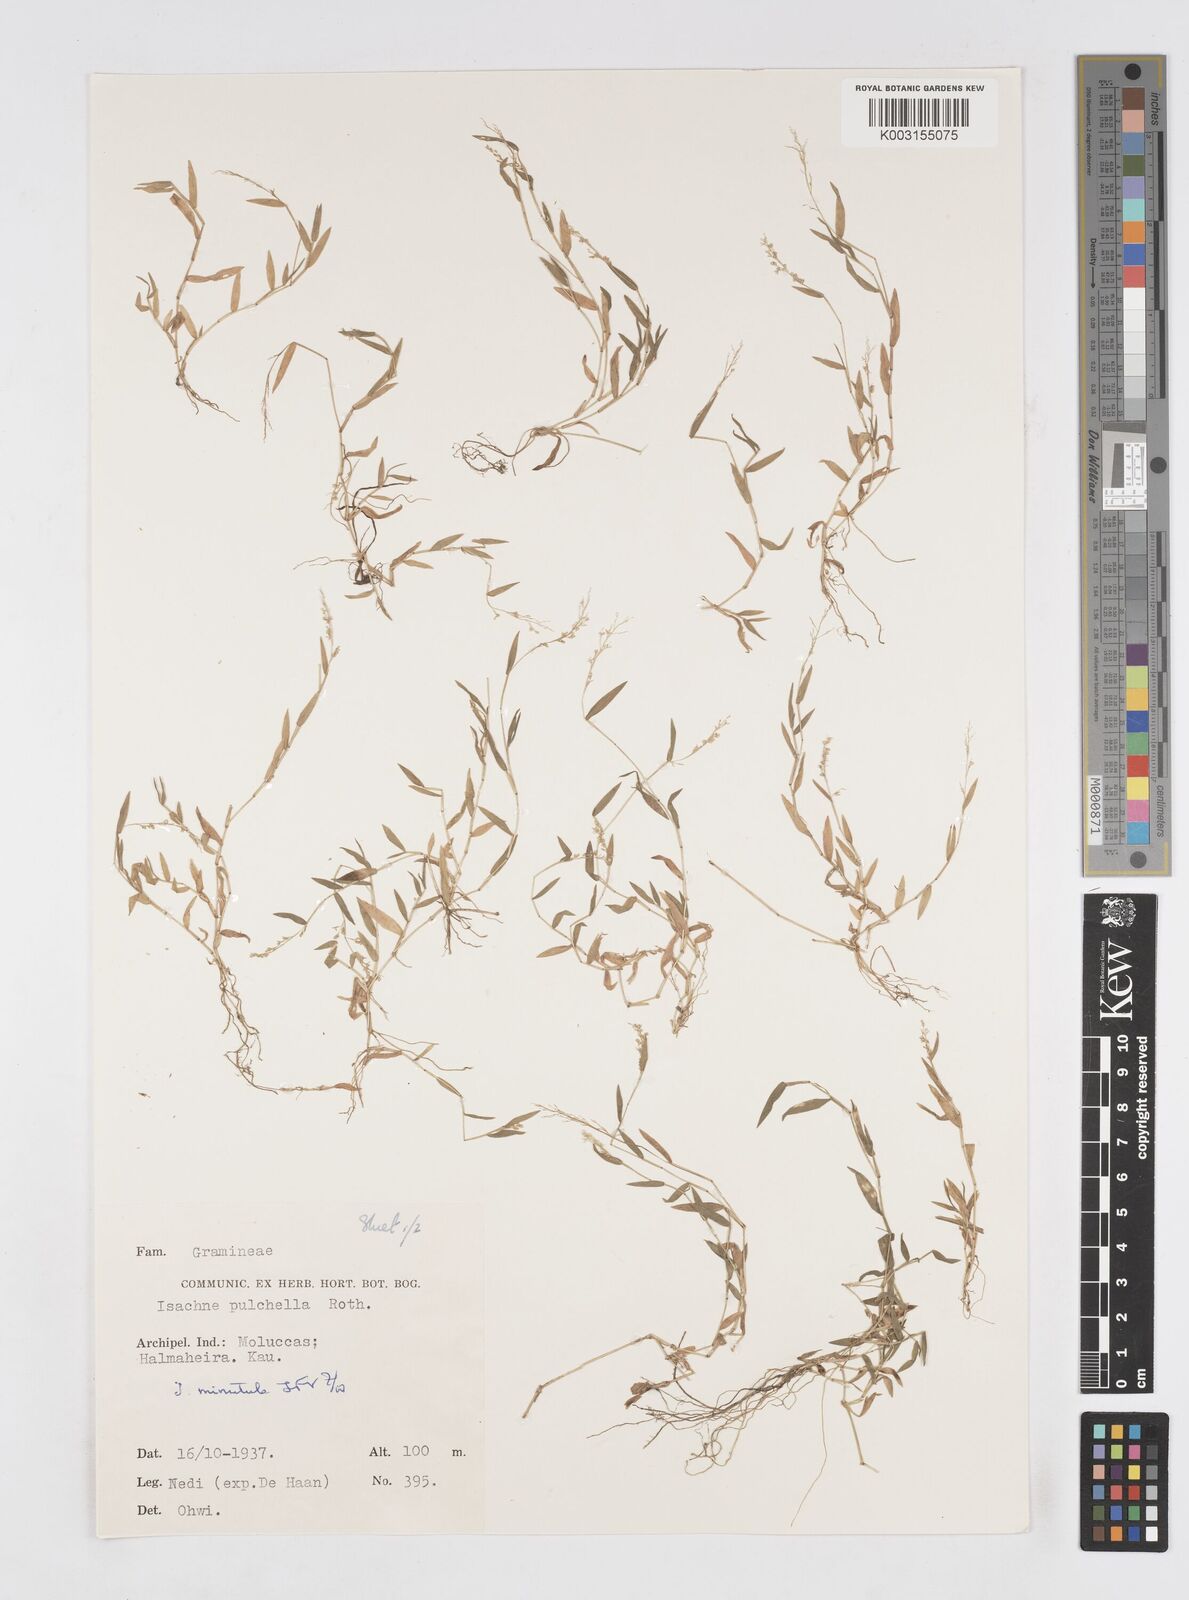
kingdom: Plantae
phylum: Tracheophyta
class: Liliopsida
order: Poales
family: Poaceae
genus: Isachne
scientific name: Isachne pulchella
